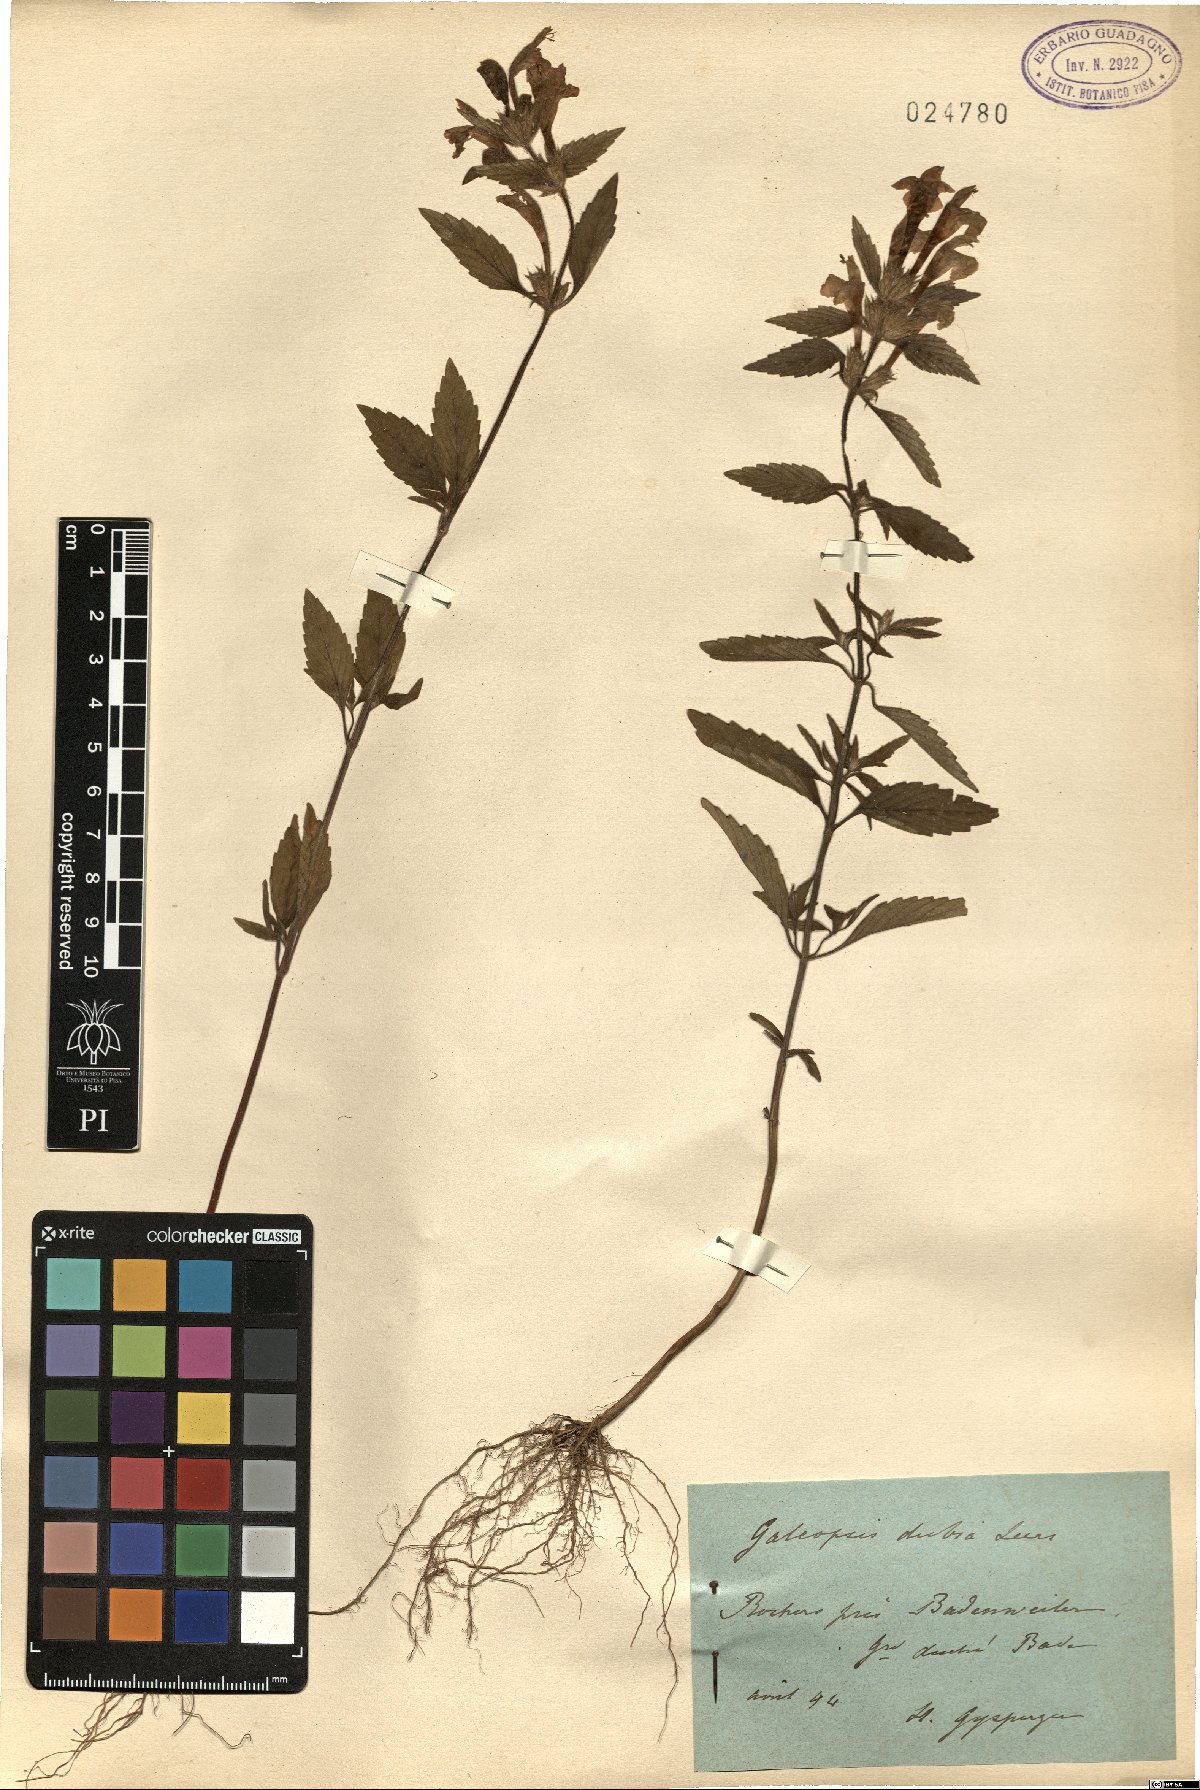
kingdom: Plantae
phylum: Tracheophyta
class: Magnoliopsida
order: Lamiales
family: Lamiaceae
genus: Galeopsis
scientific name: Galeopsis segetum
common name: Downy hemp-nettle
